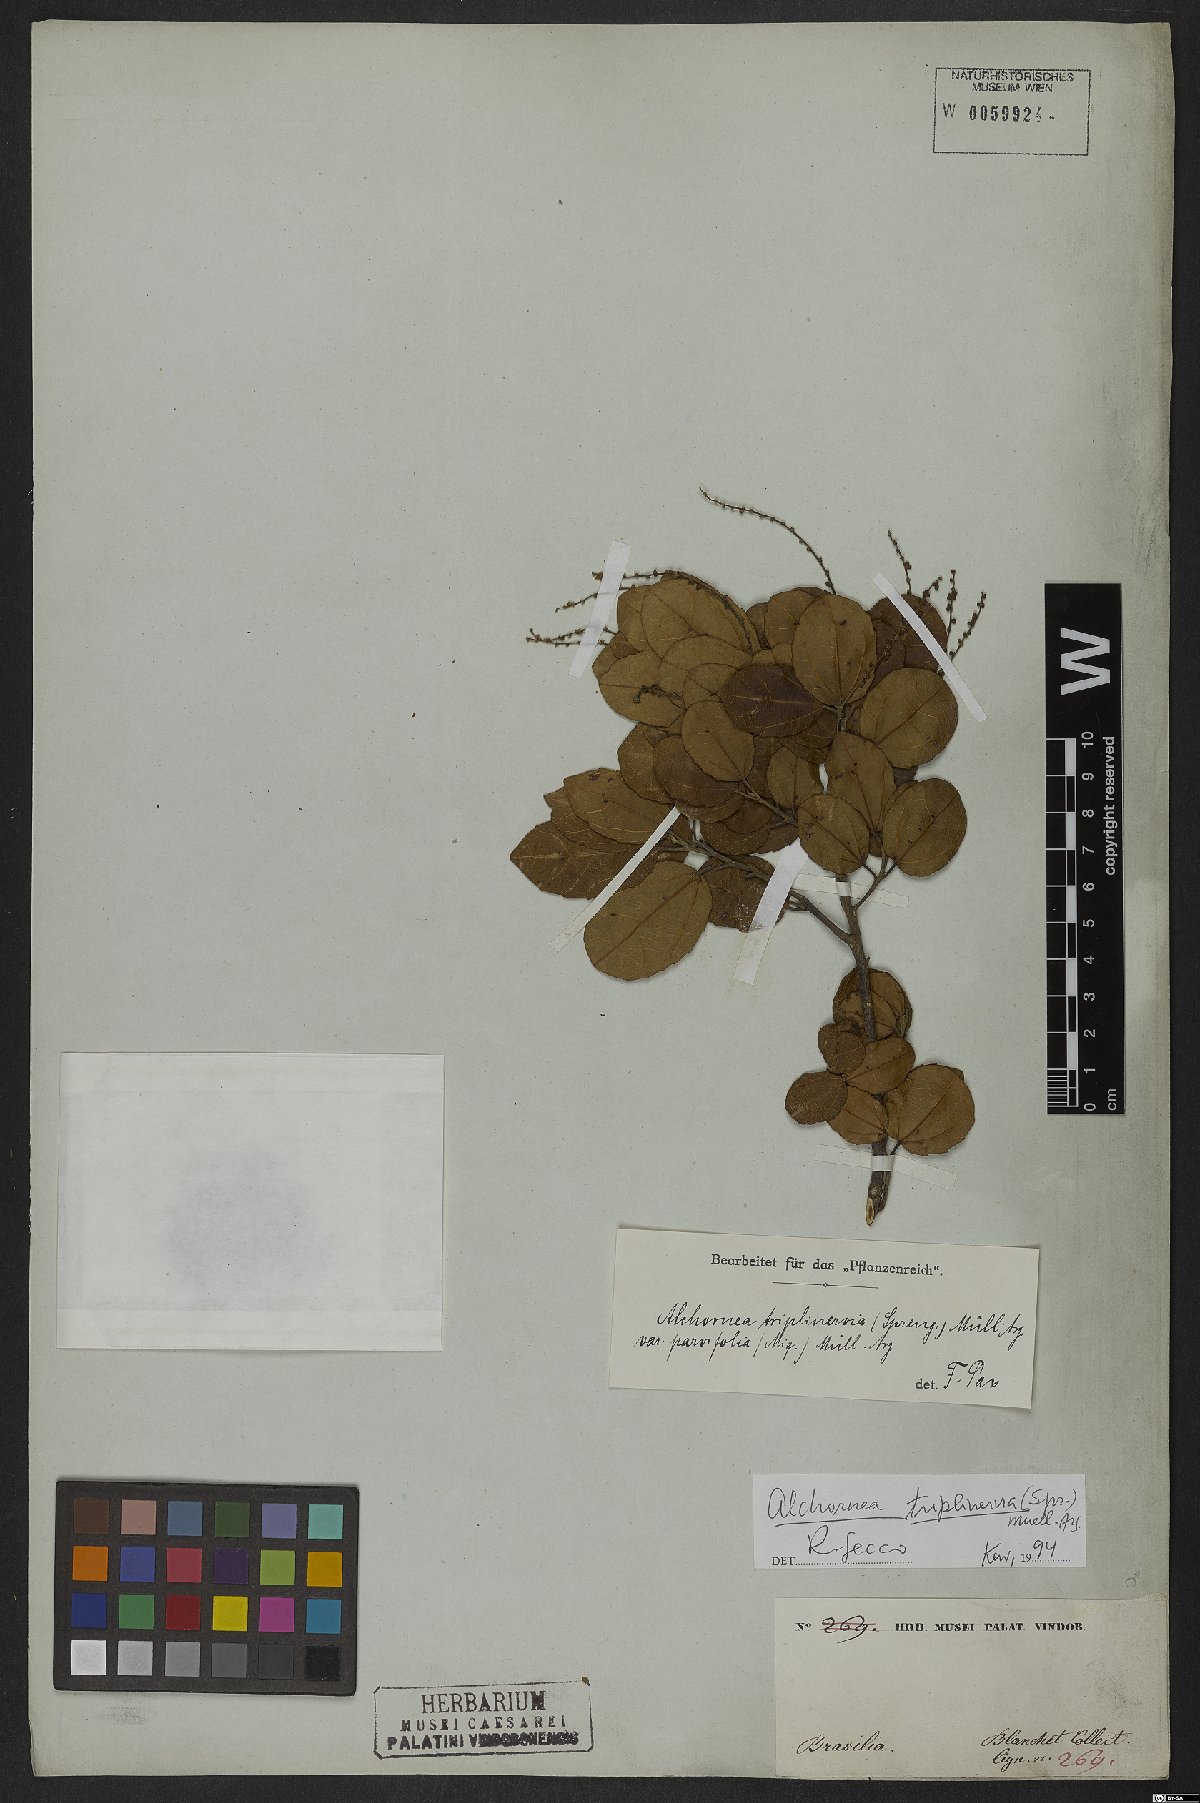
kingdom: Plantae
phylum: Tracheophyta
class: Magnoliopsida
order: Malpighiales
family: Euphorbiaceae
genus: Alchornea
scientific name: Alchornea triplinervia
